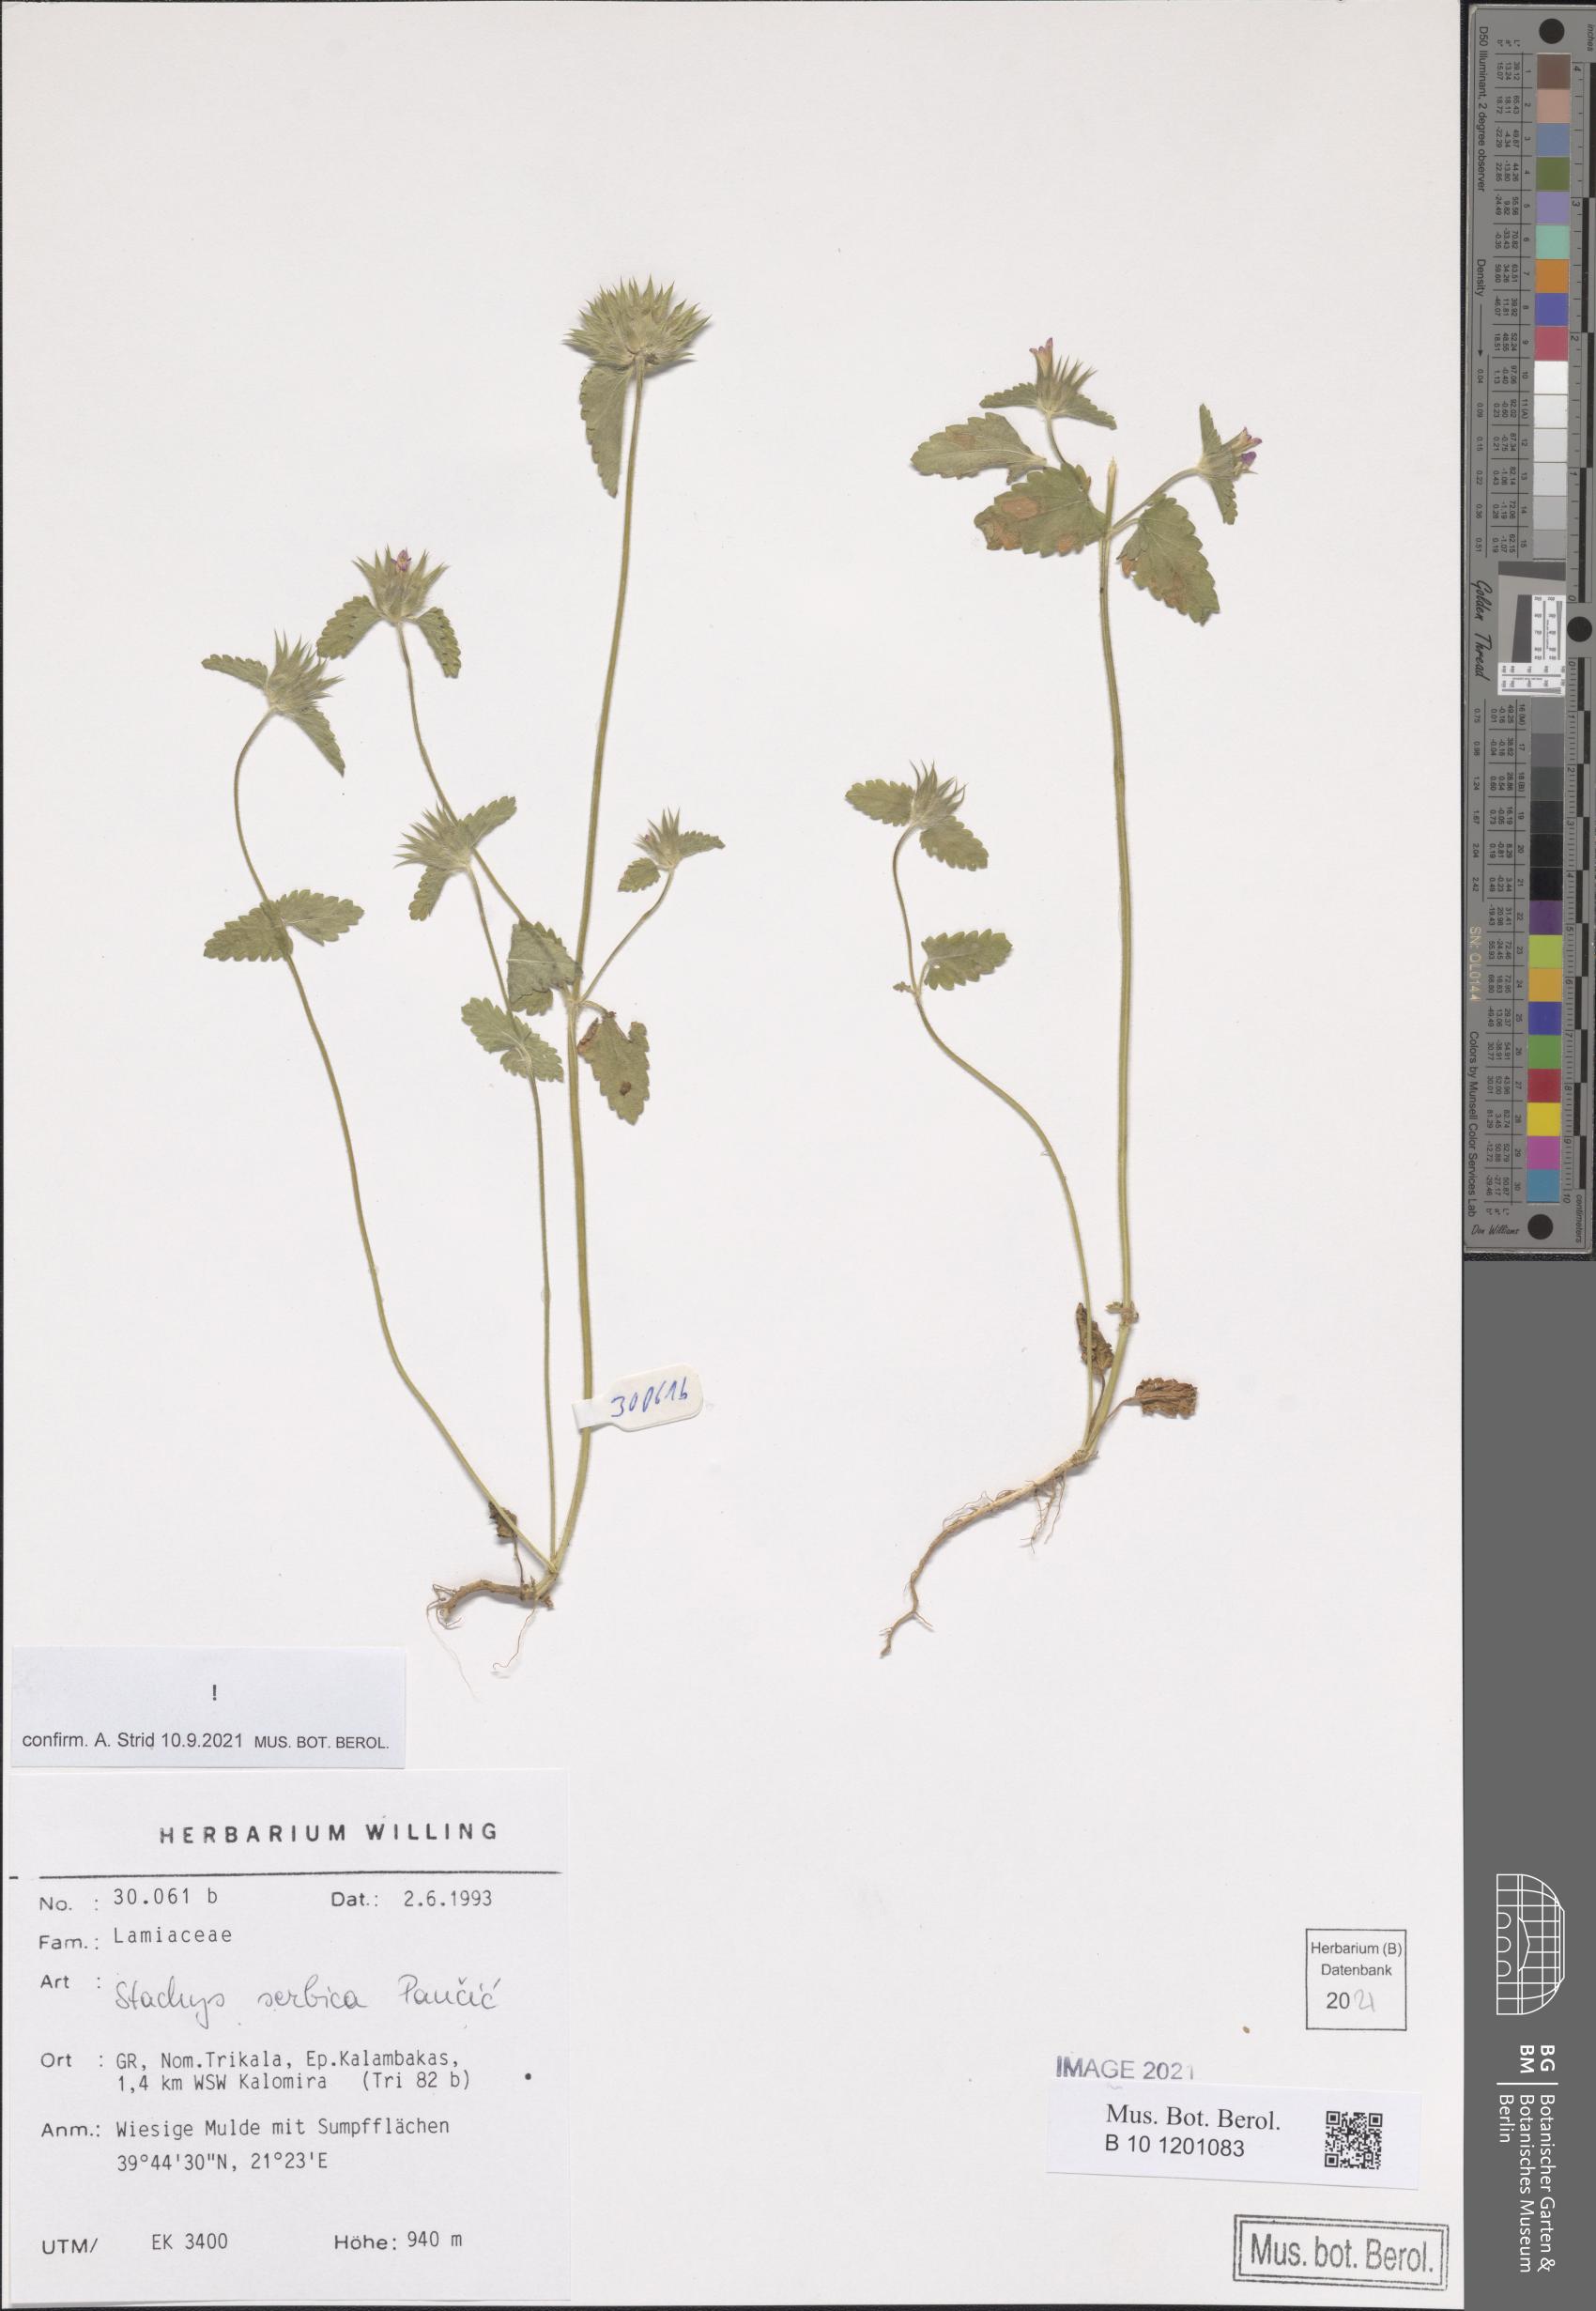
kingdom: Plantae
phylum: Tracheophyta
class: Magnoliopsida
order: Lamiales
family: Lamiaceae
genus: Stachys
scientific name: Stachys serbica
